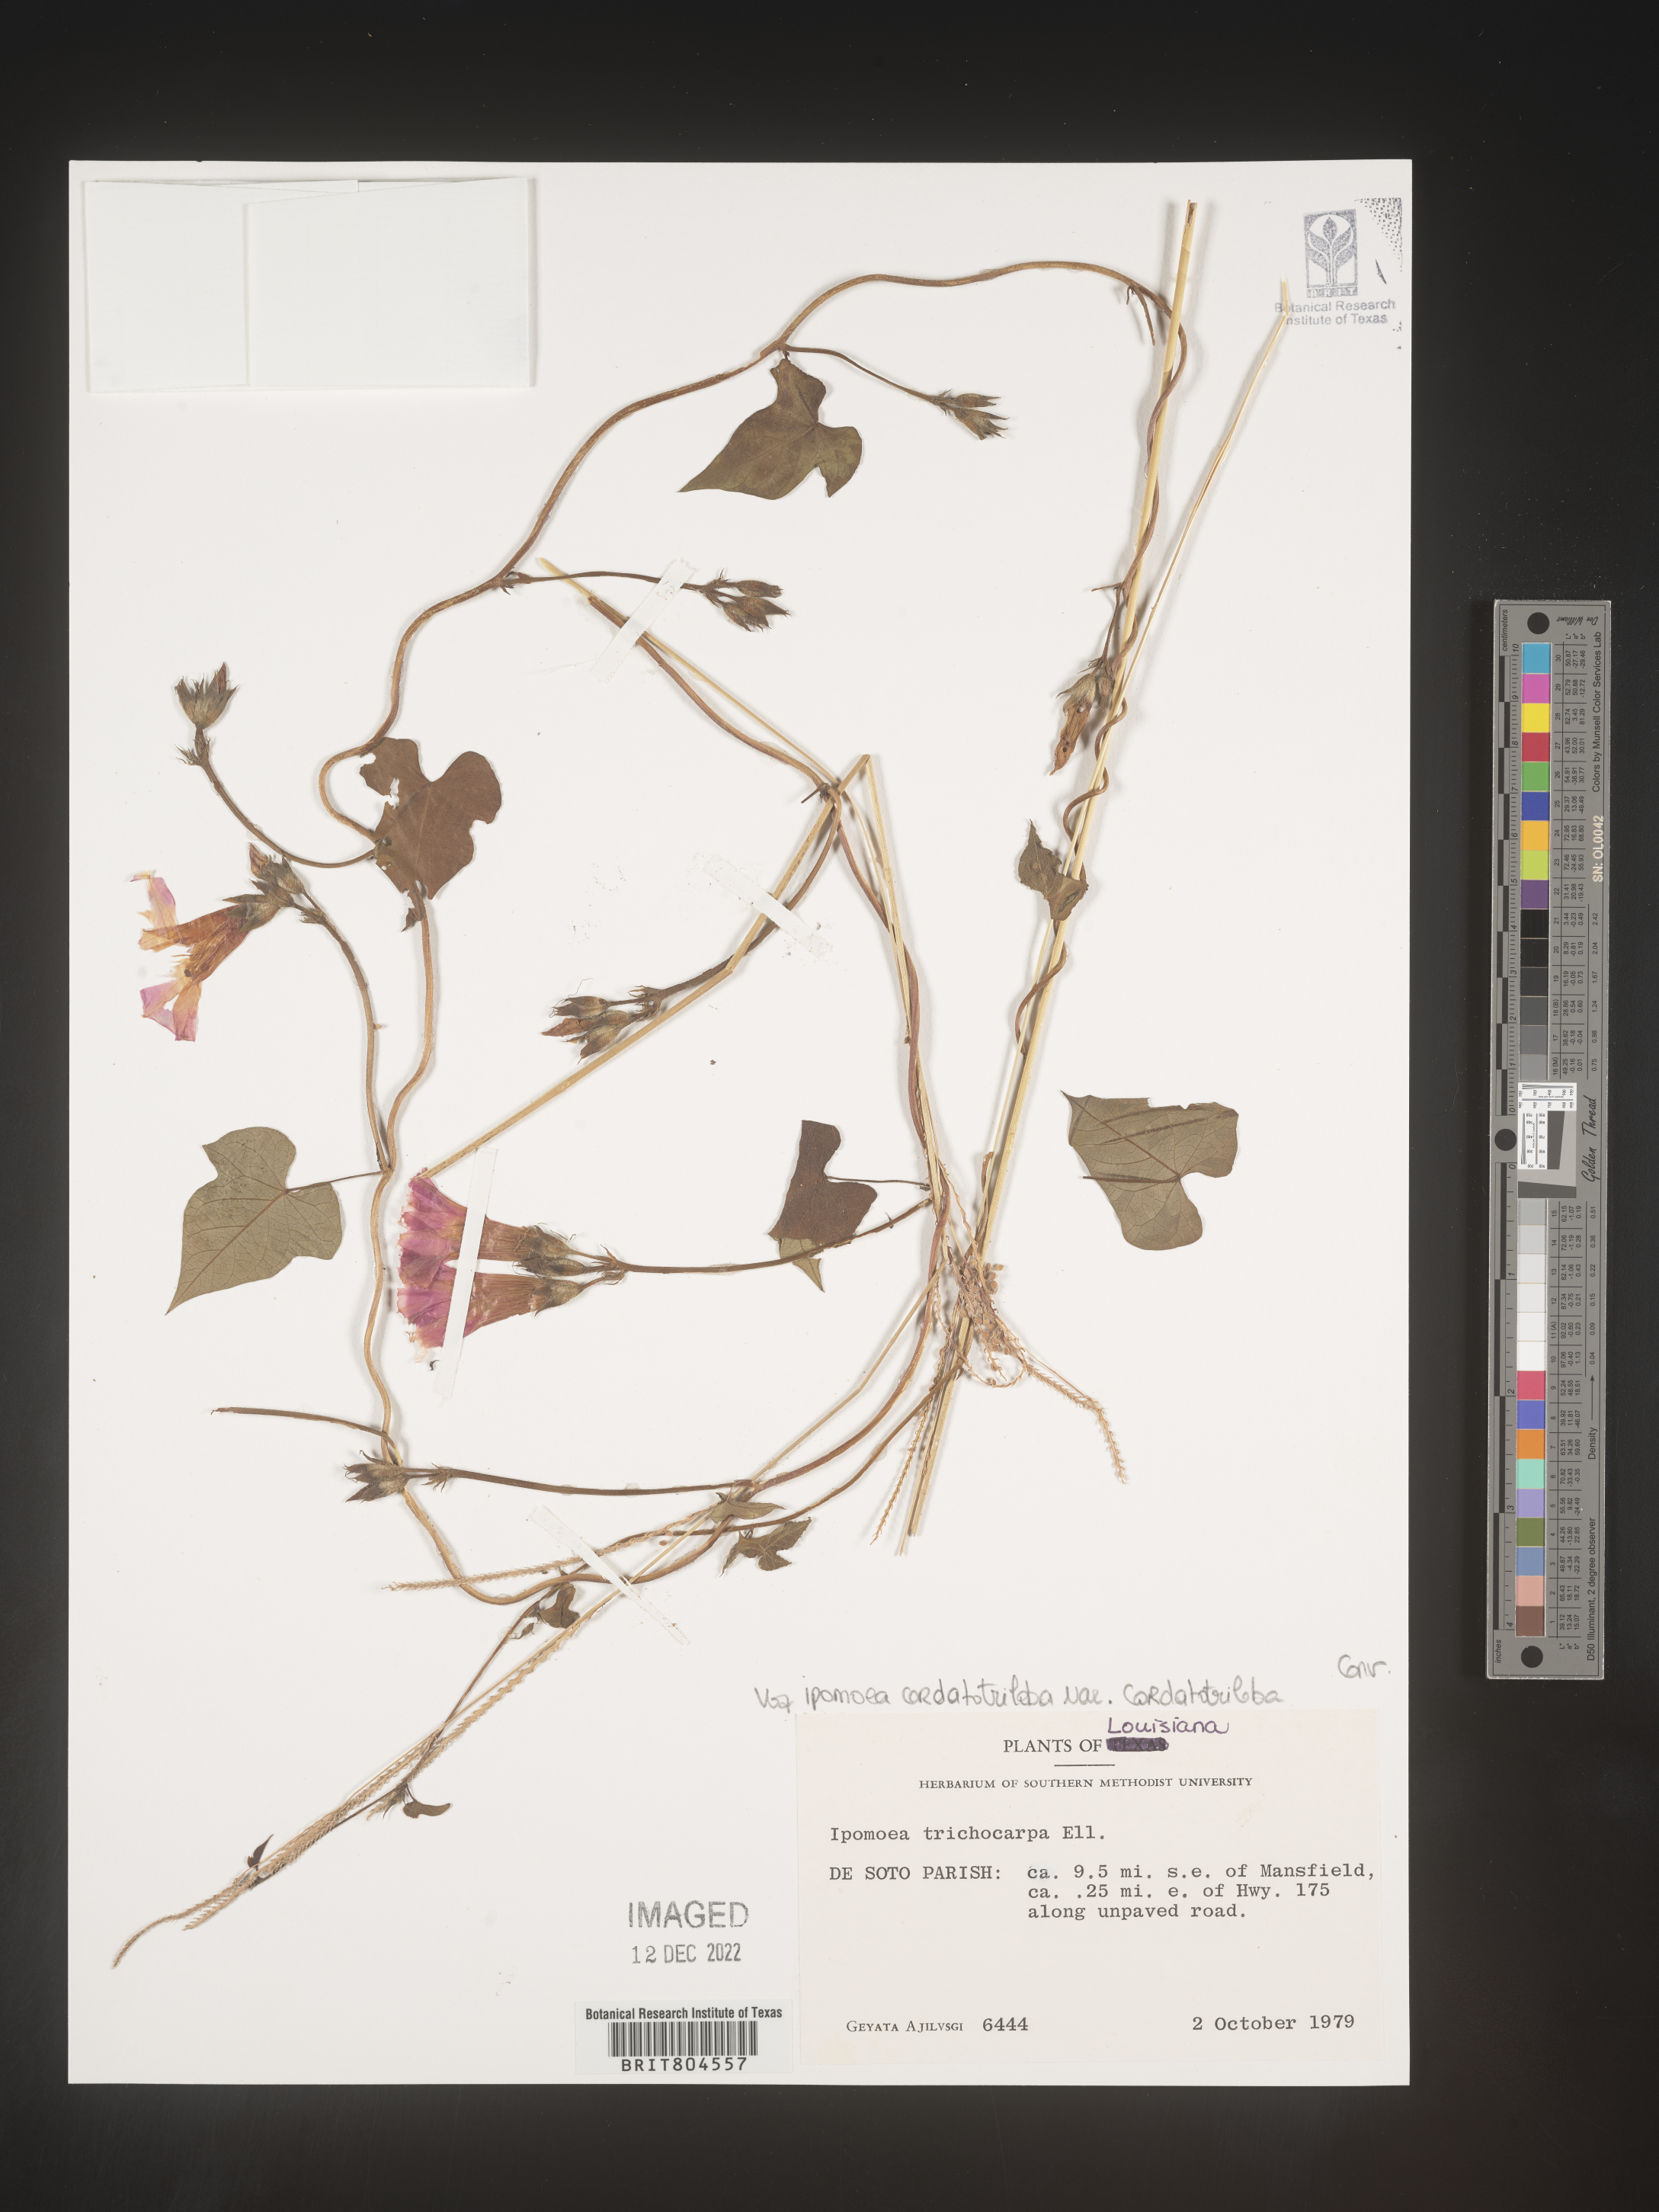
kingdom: Plantae
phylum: Tracheophyta
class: Magnoliopsida
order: Solanales
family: Convolvulaceae
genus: Ipomoea
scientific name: Ipomoea cordatotriloba
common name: Cotton morning glory
